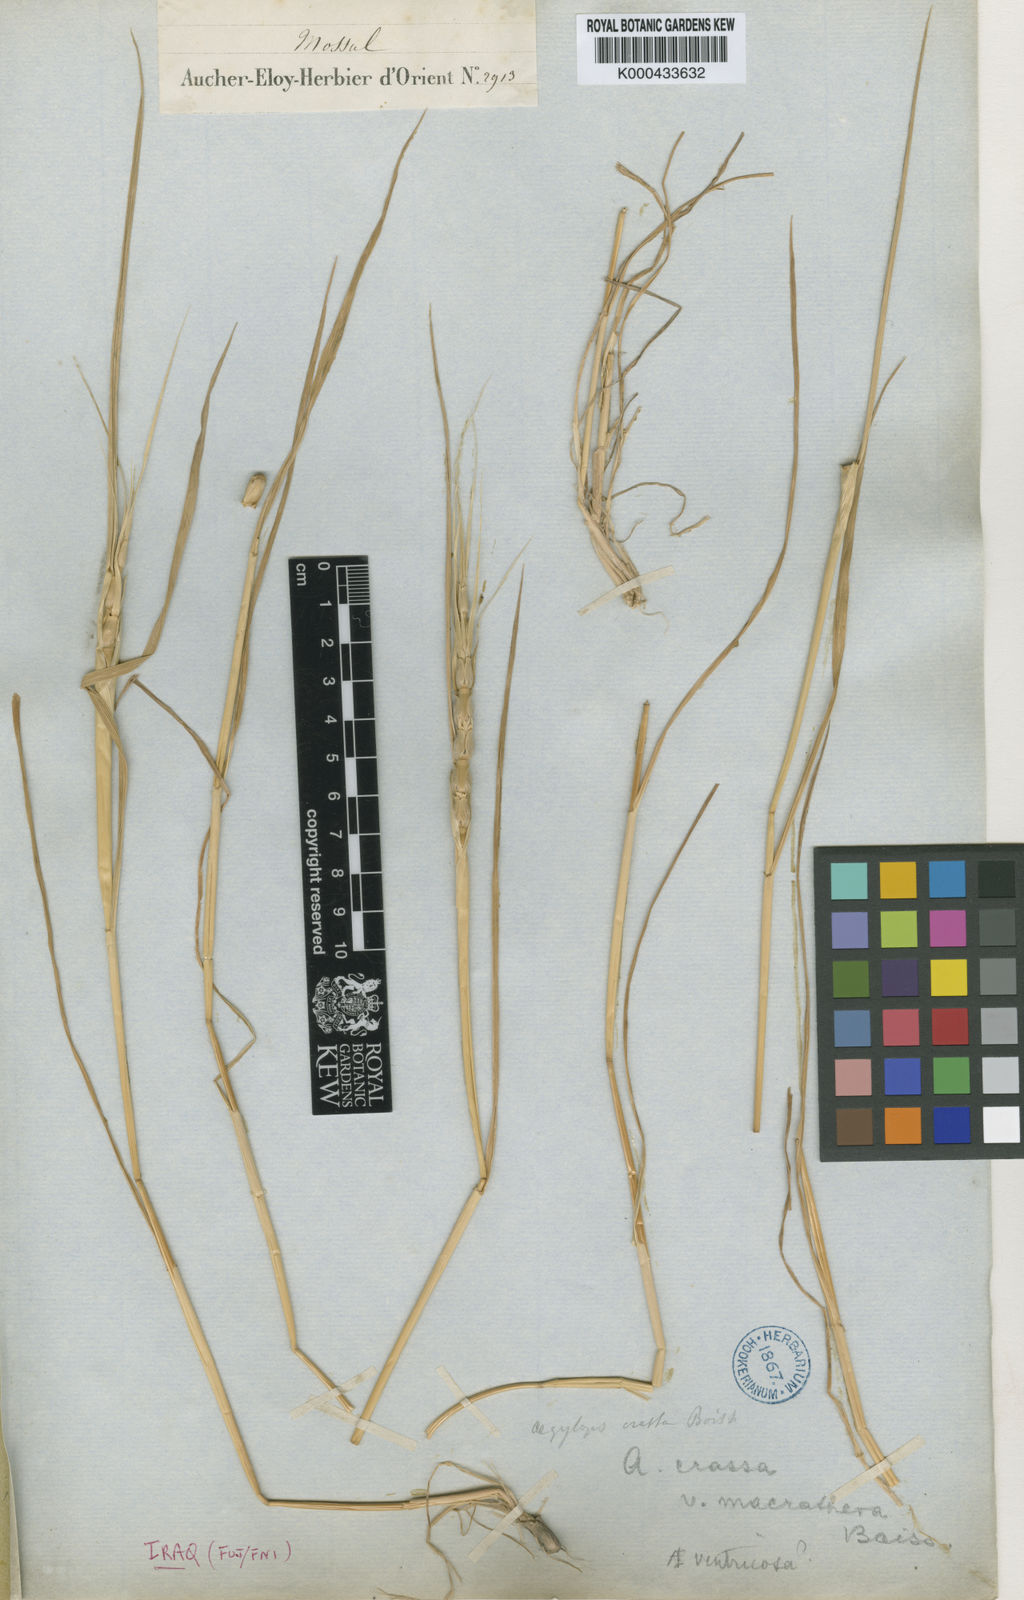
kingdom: Plantae
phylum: Tracheophyta
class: Liliopsida
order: Poales
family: Poaceae
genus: Aegilops
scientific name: Aegilops
